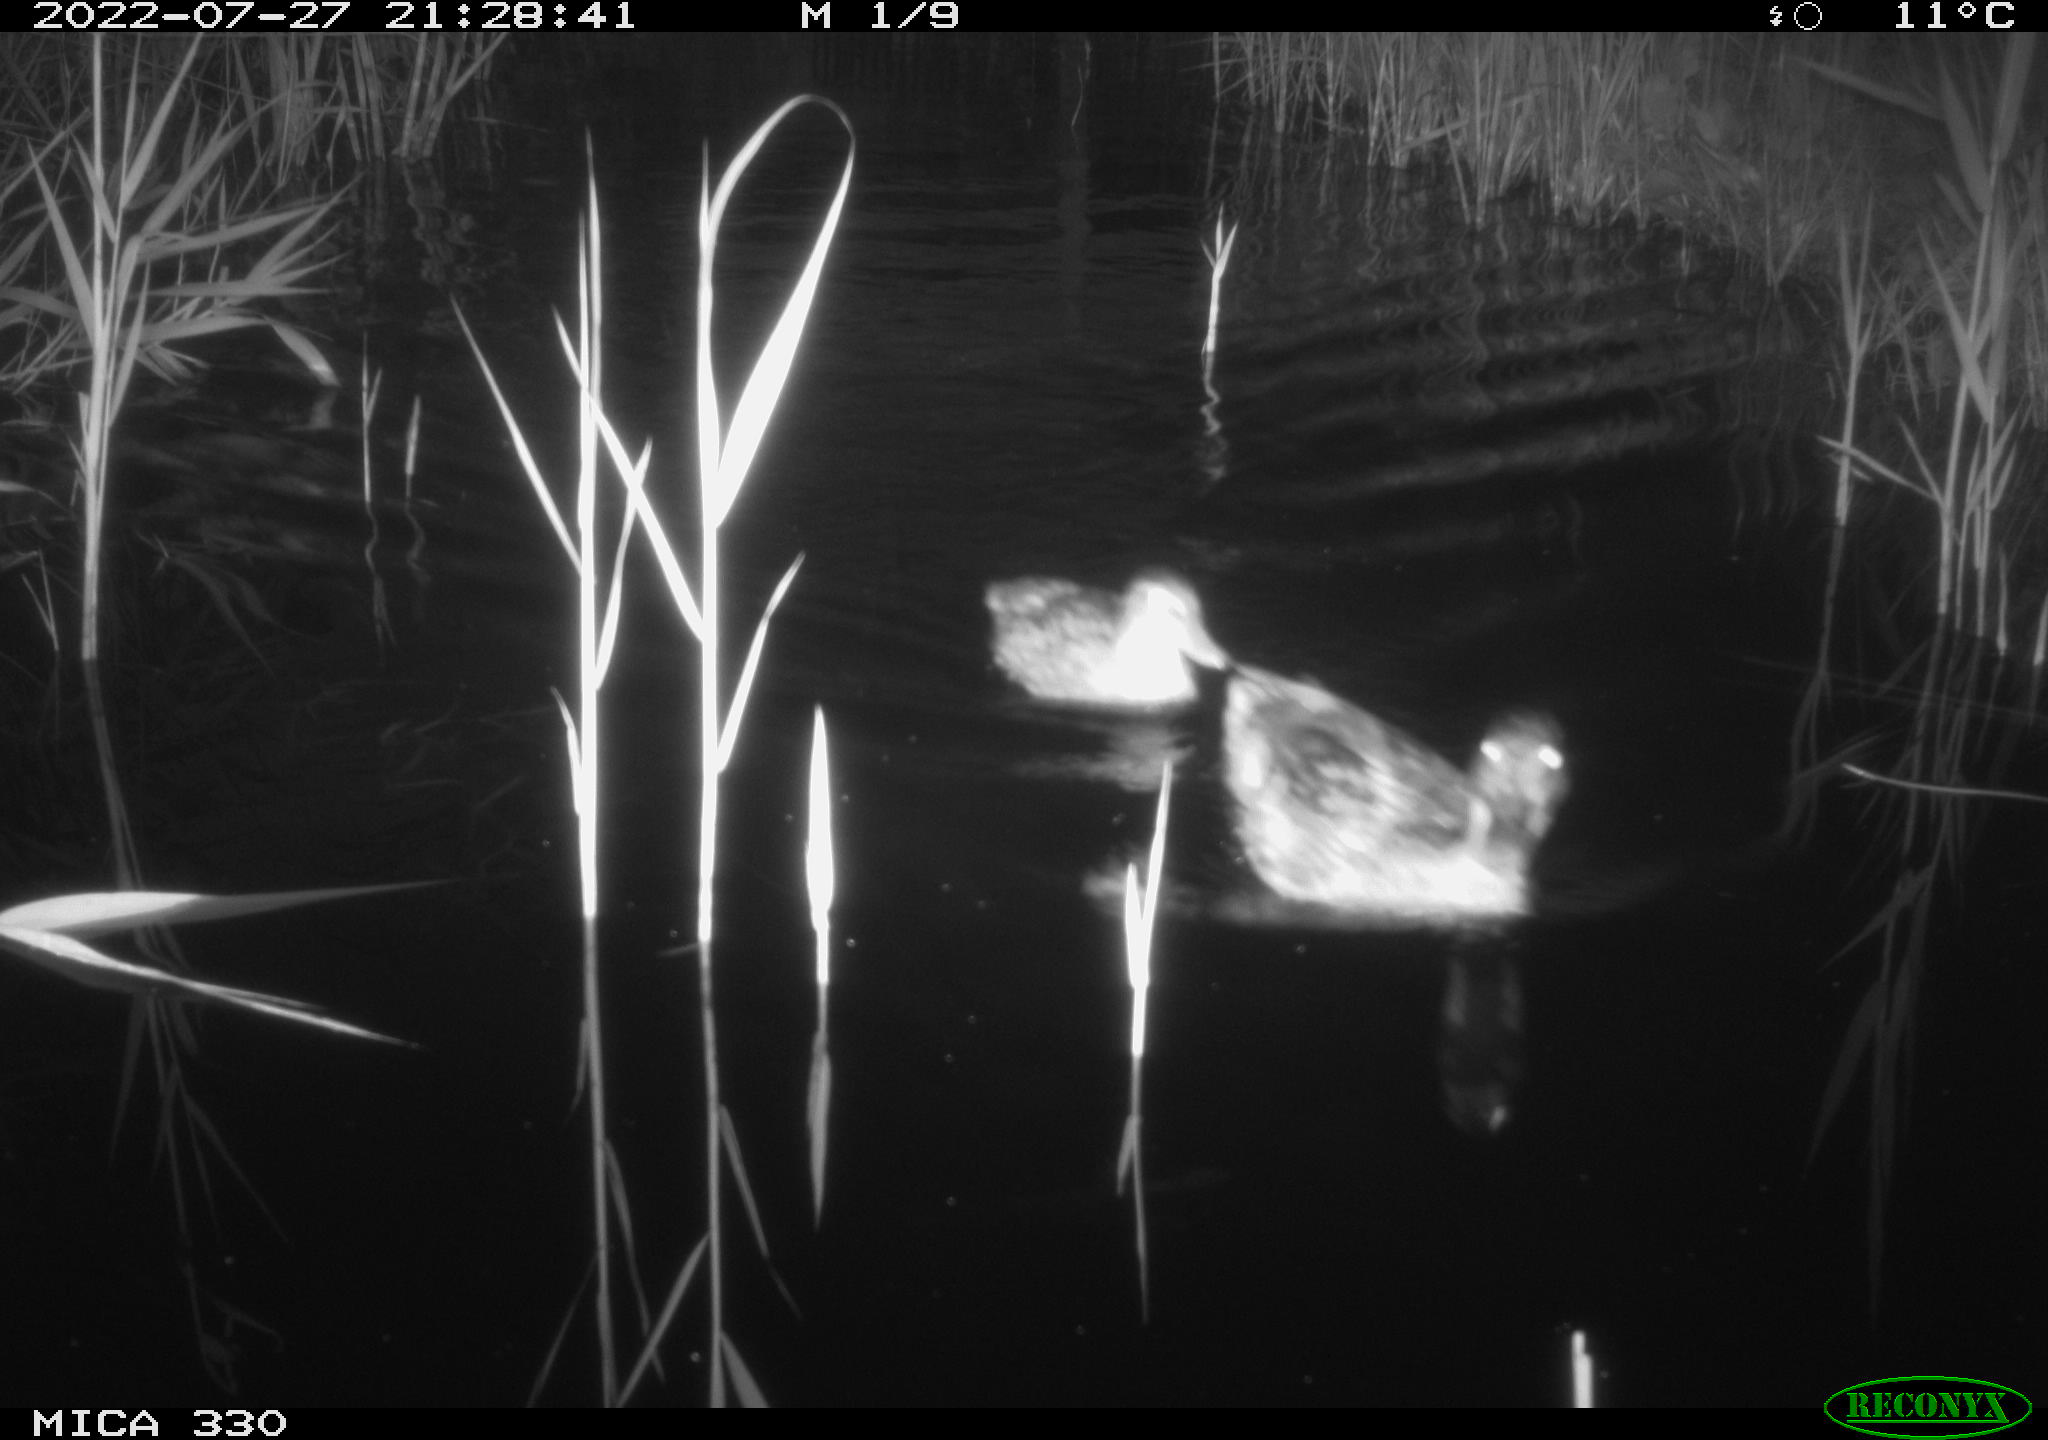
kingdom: Animalia
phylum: Chordata
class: Aves
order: Anseriformes
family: Anatidae
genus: Mareca
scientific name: Mareca strepera
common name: Gadwall
